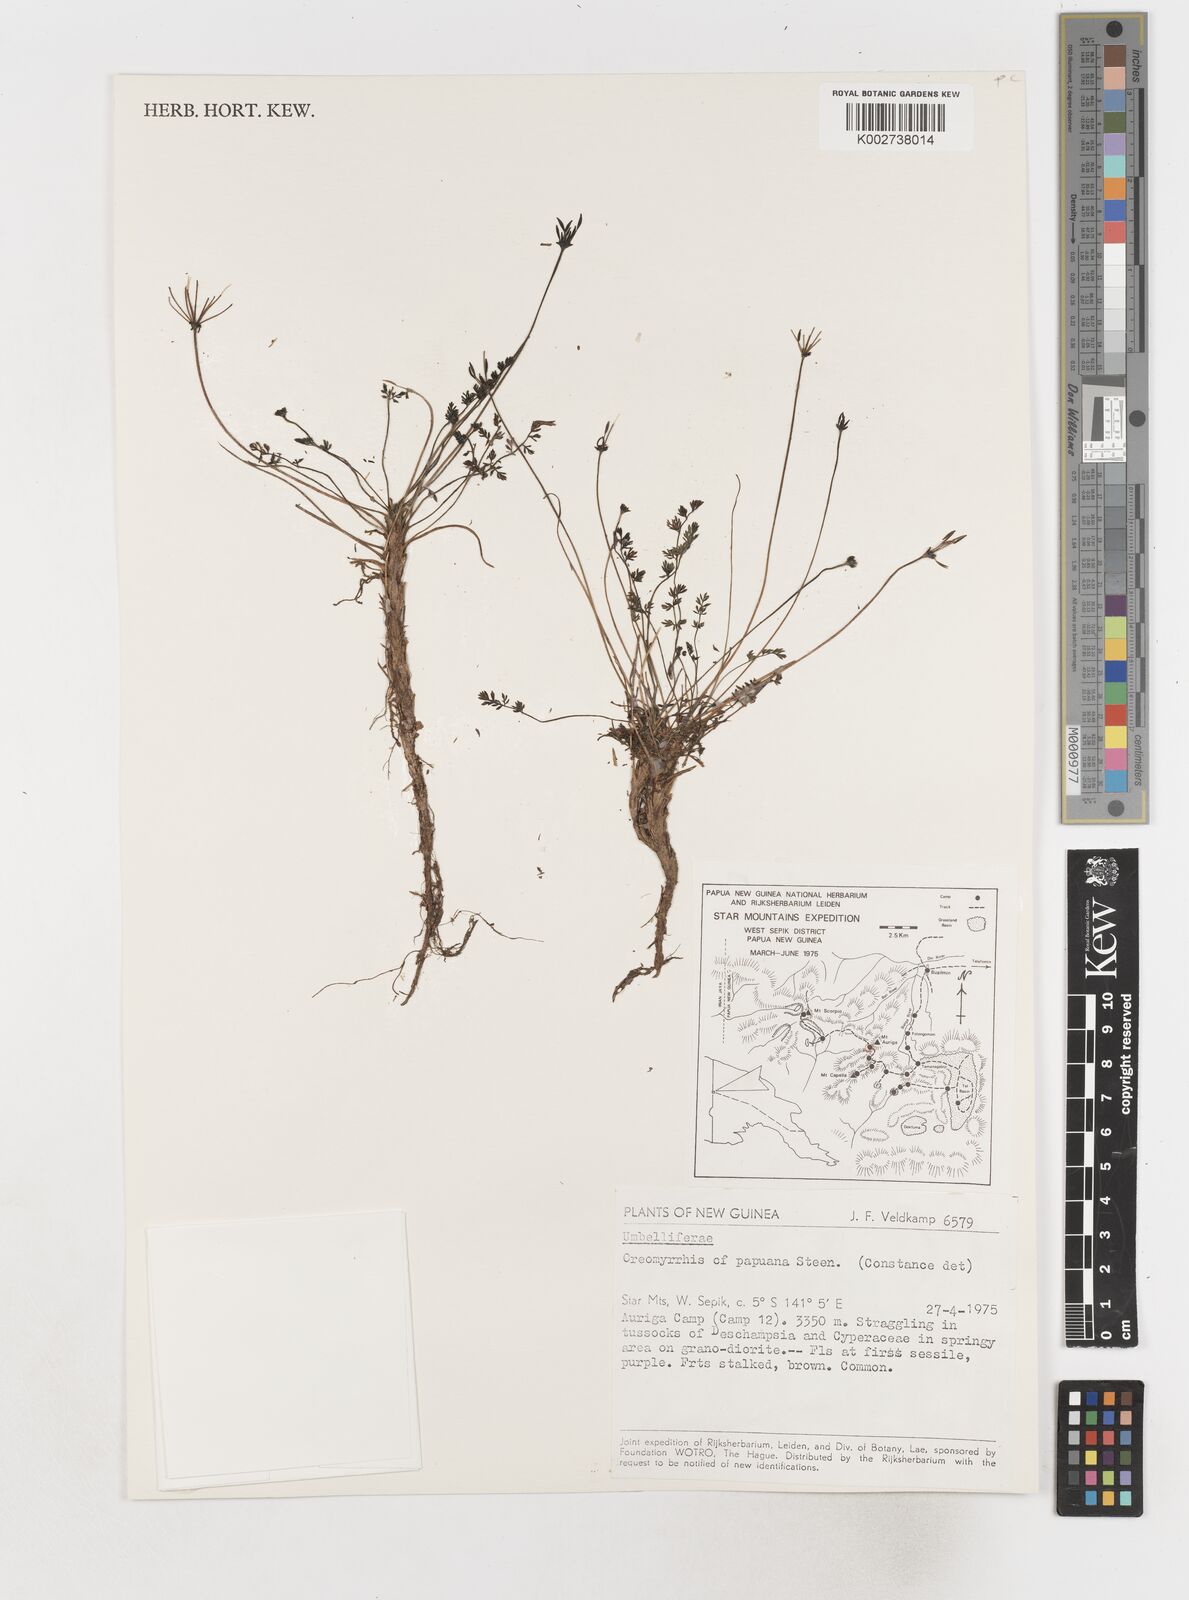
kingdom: Plantae
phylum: Tracheophyta
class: Magnoliopsida
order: Apiales
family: Apiaceae
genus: Chaerophyllum
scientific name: Chaerophyllum papuanum
